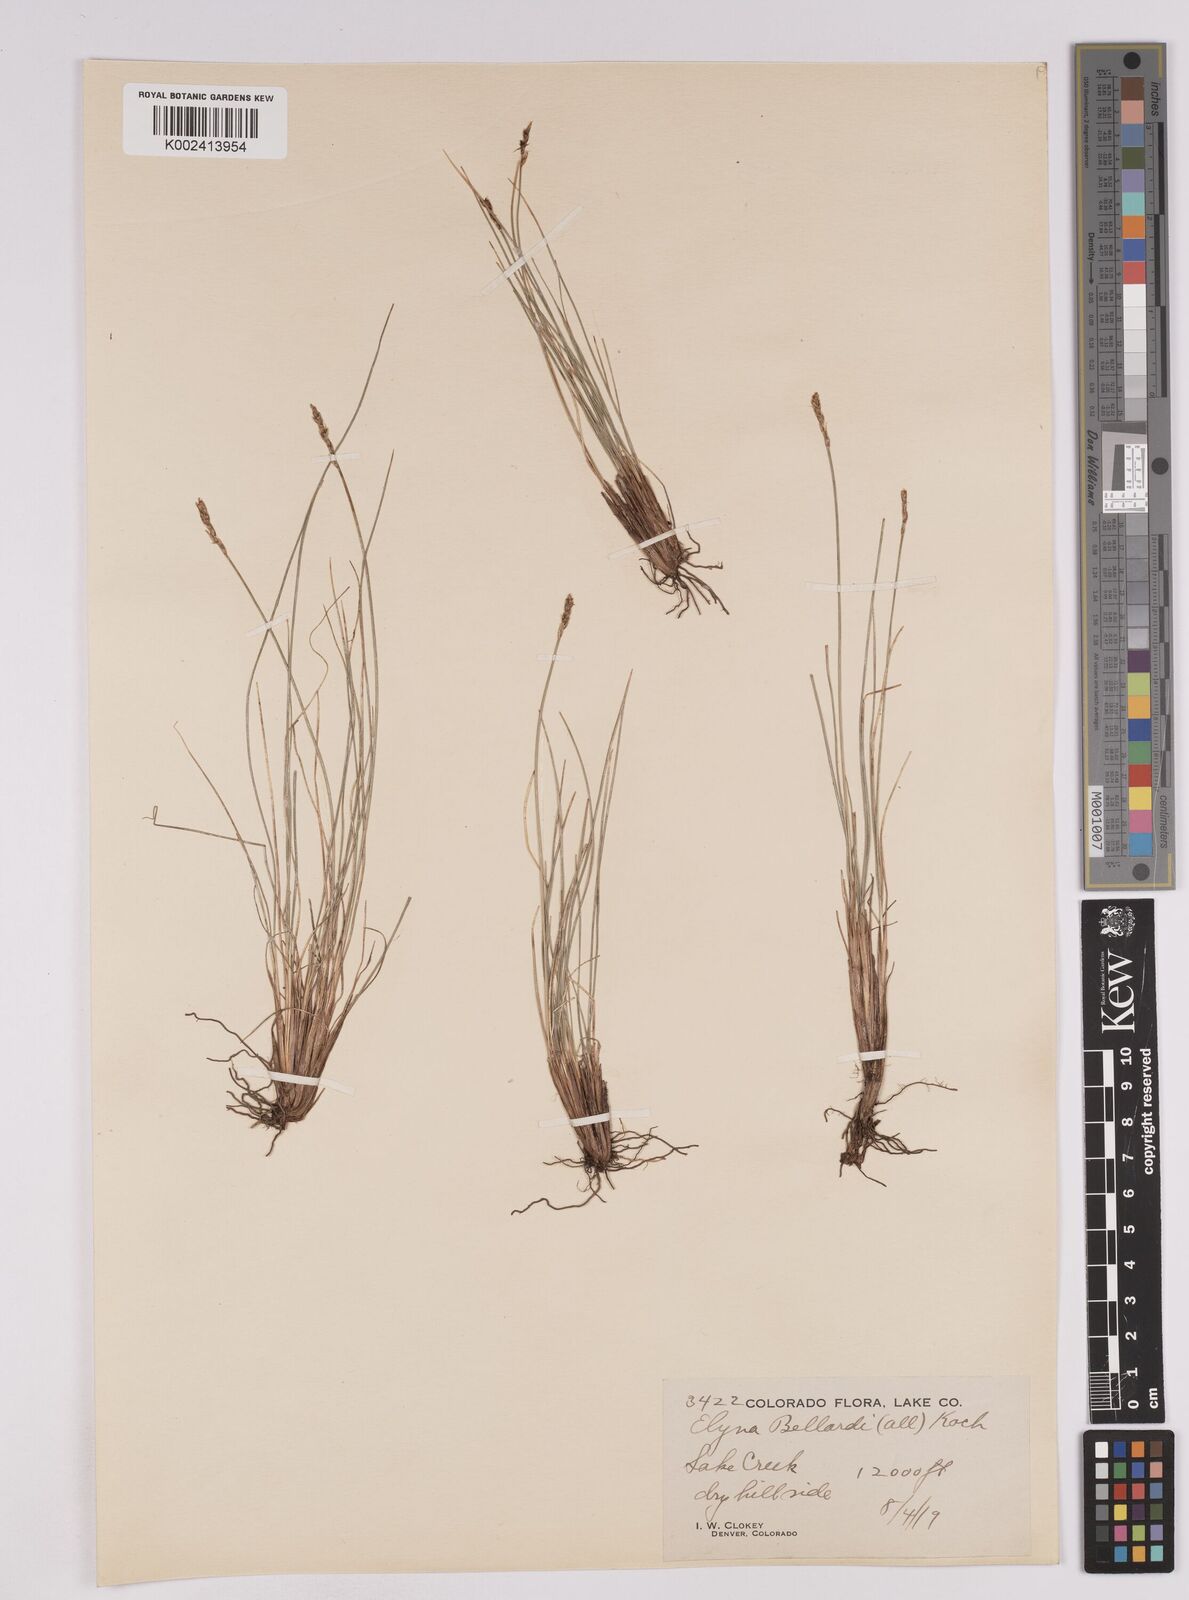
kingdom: Plantae
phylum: Tracheophyta
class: Liliopsida
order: Poales
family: Cyperaceae
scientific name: Cyperaceae
